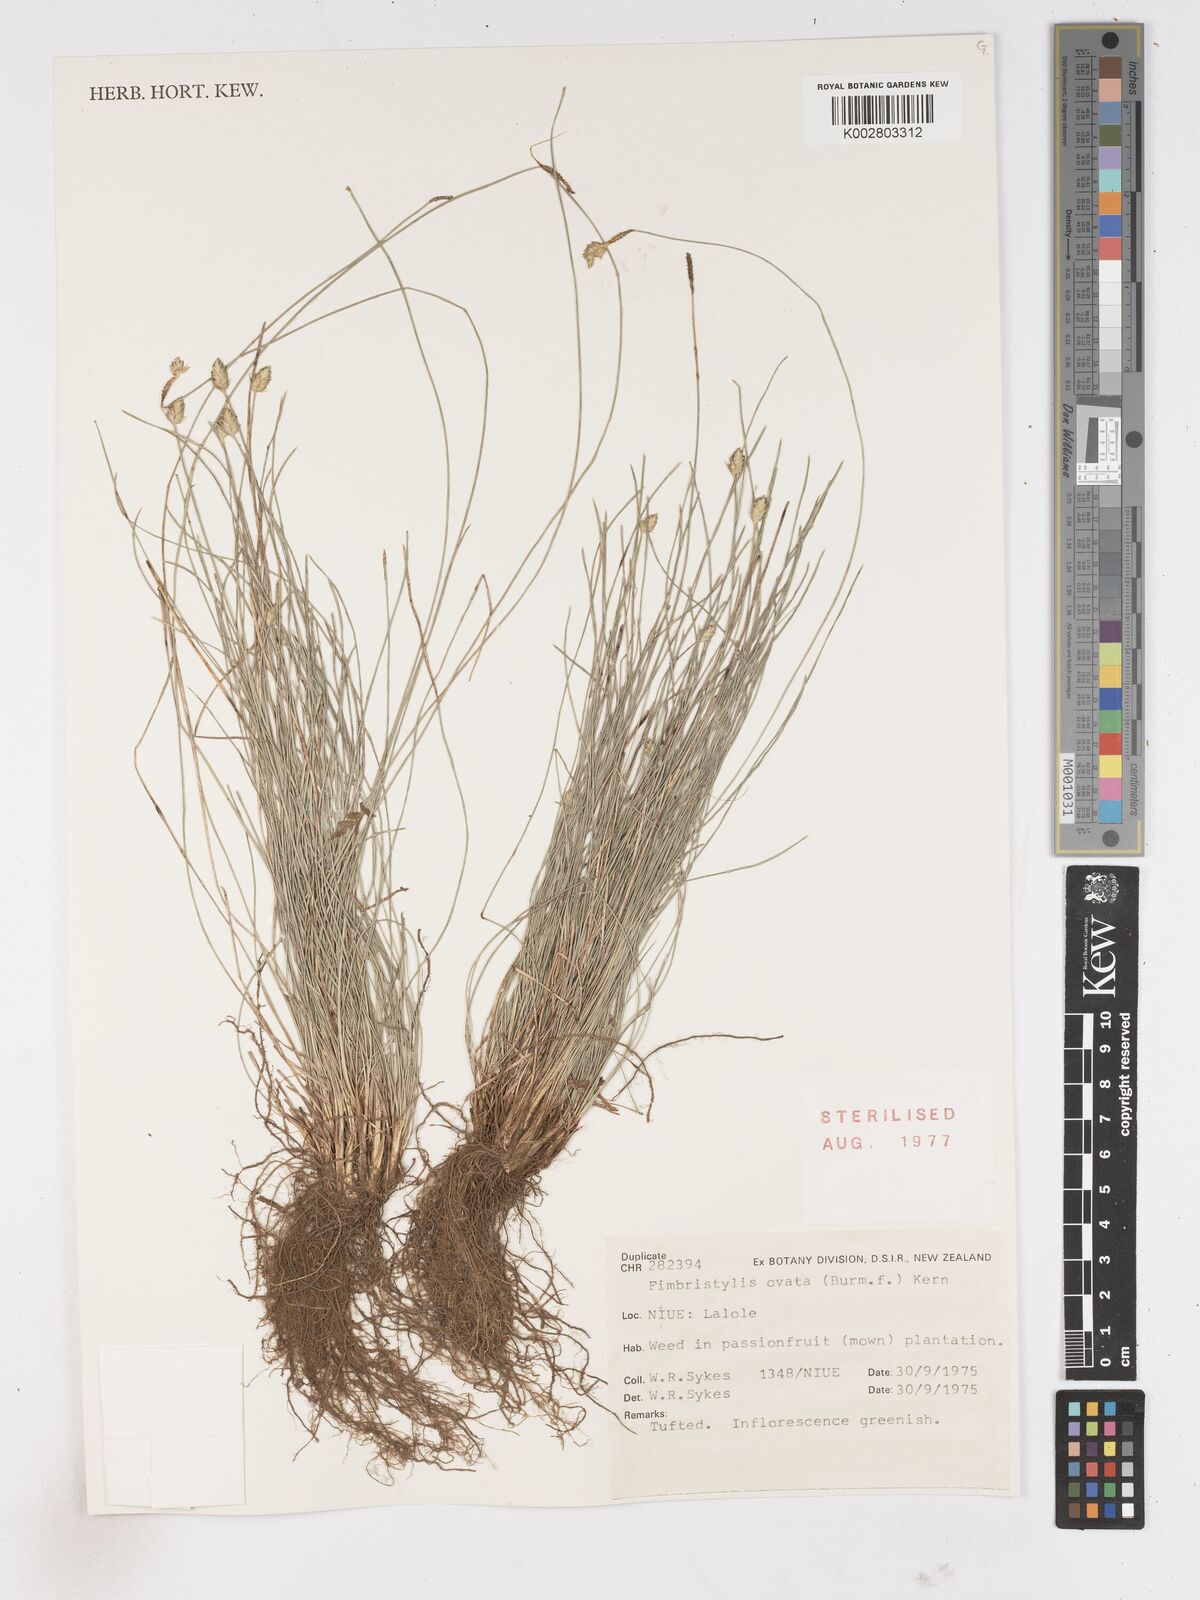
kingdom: Plantae
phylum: Tracheophyta
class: Liliopsida
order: Poales
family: Cyperaceae
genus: Abildgaardia
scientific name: Abildgaardia ovata
